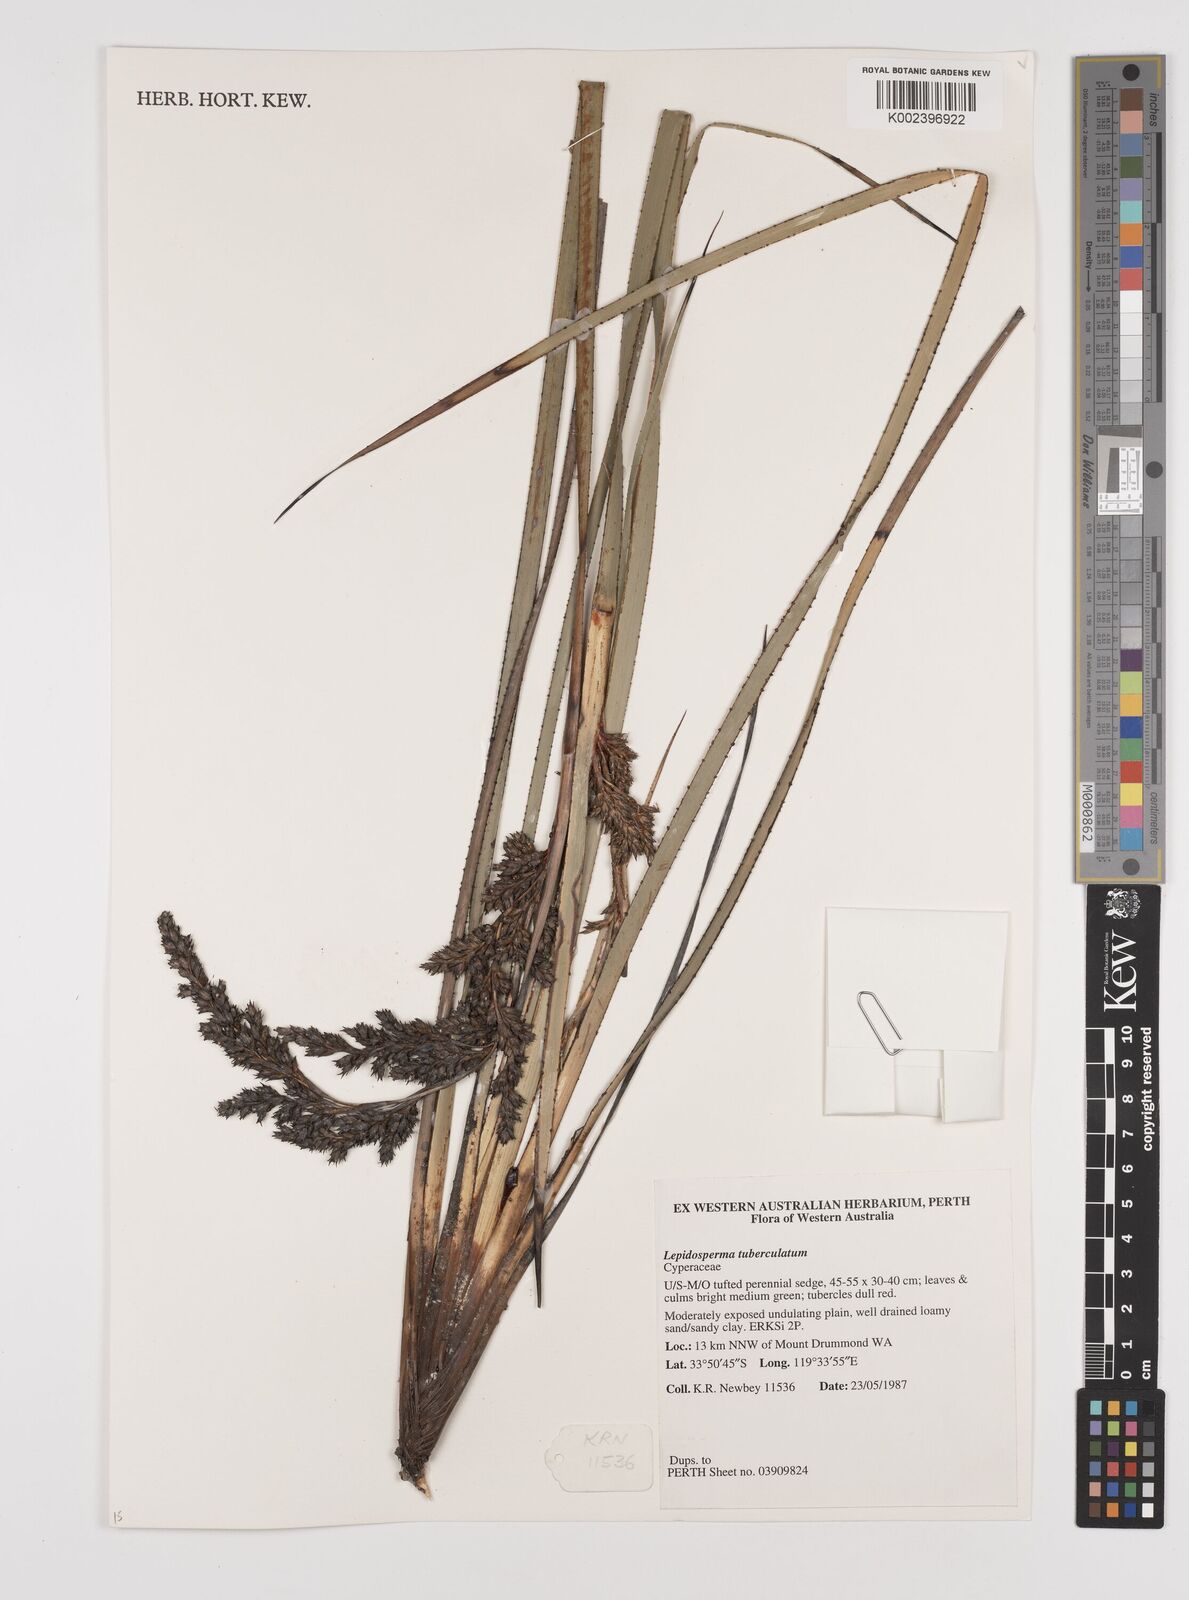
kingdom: Plantae
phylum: Tracheophyta
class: Liliopsida
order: Poales
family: Cyperaceae
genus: Lepidosperma
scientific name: Lepidosperma tuberculatum
